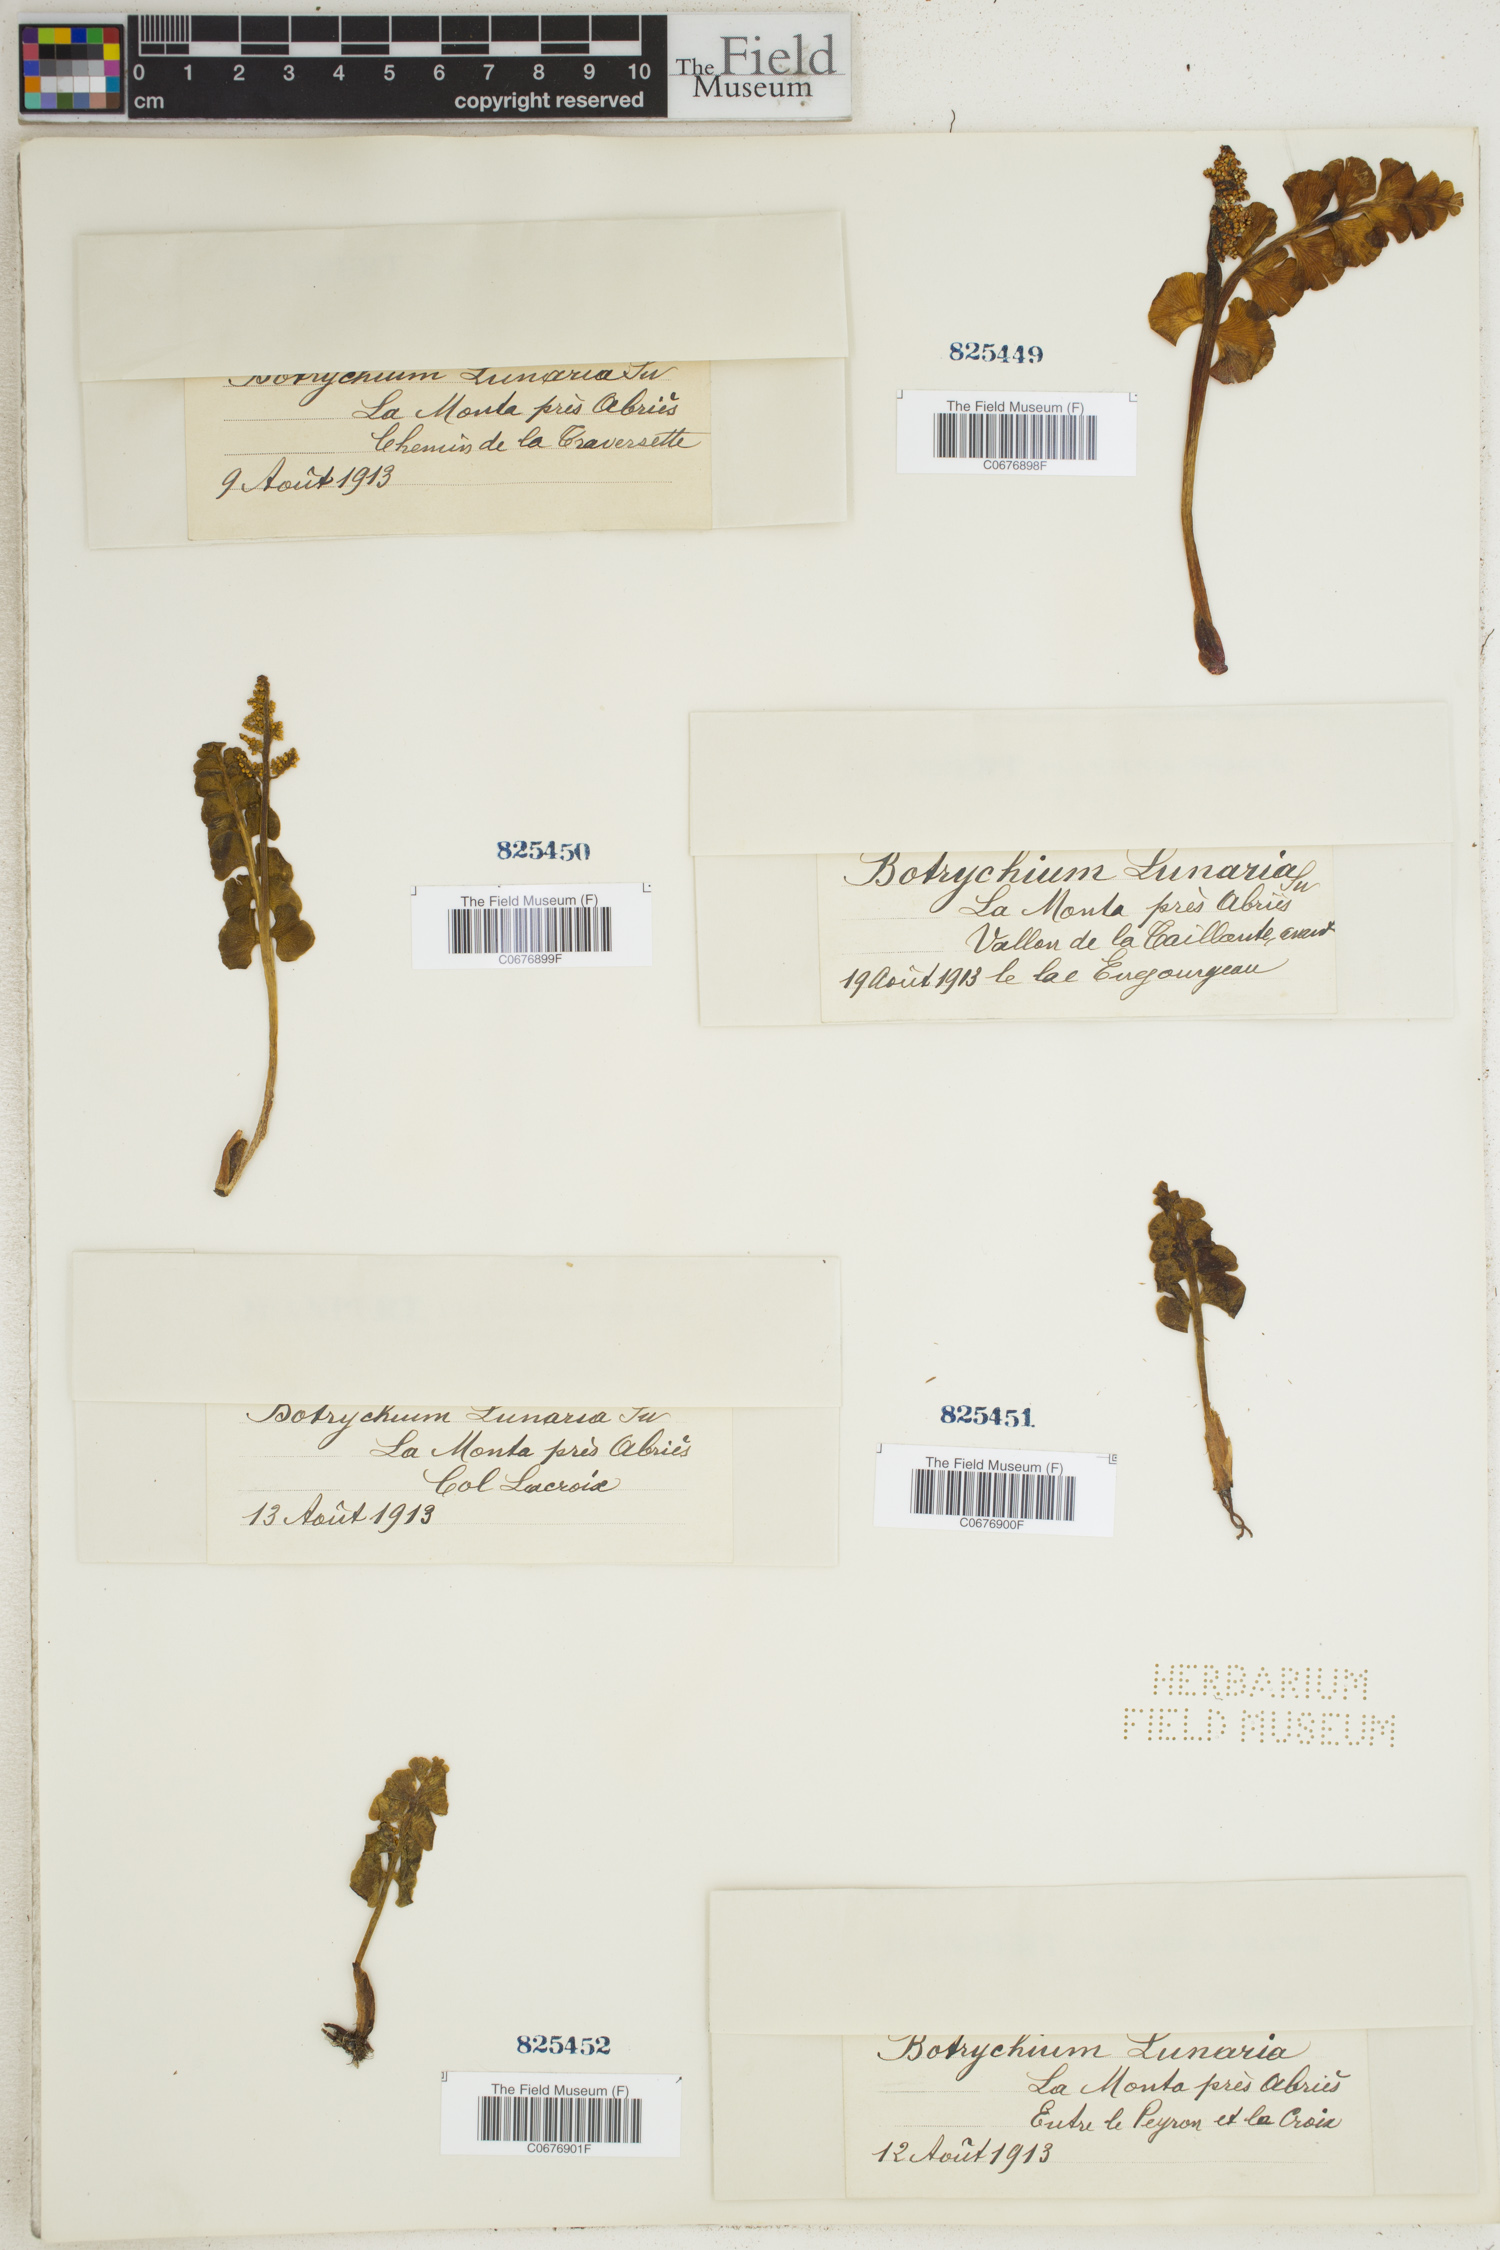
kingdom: Plantae
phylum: Tracheophyta
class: Polypodiopsida
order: Ophioglossales
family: Ophioglossaceae
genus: Botrychium
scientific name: Botrychium lunaria
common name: Moonwort
